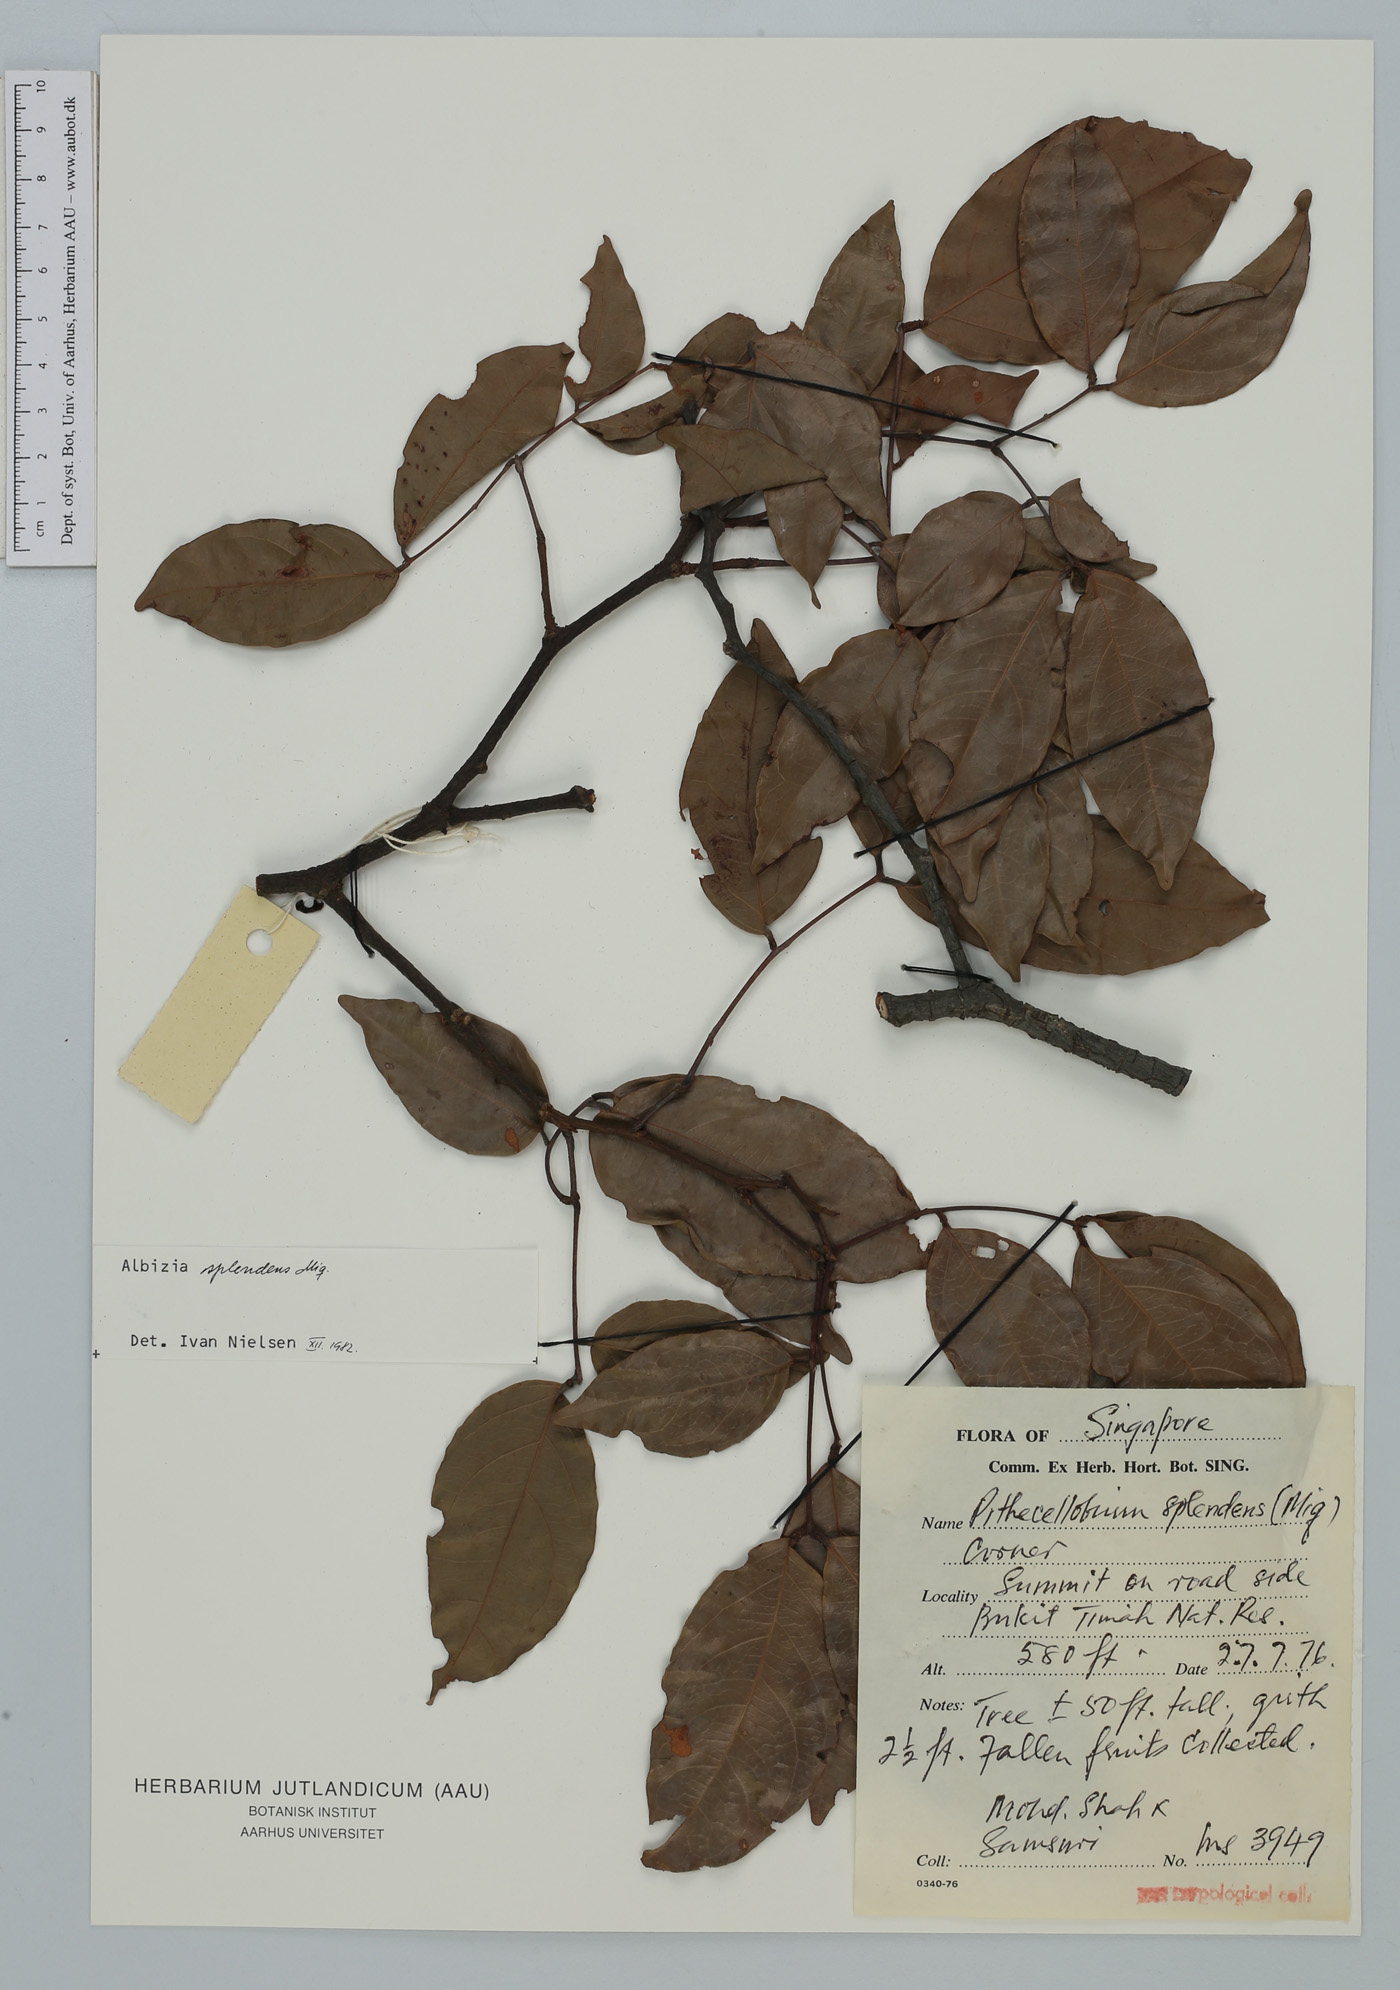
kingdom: Plantae
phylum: Tracheophyta
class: Magnoliopsida
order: Fabales
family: Fabaceae
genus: Albizia
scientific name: Albizia splendens
